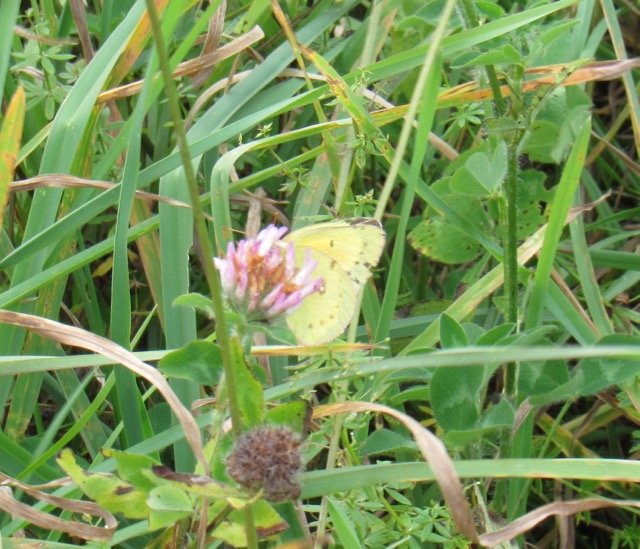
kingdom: Animalia
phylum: Arthropoda
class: Insecta
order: Lepidoptera
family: Pieridae
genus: Colias
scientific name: Colias eurytheme
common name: Orange Sulphur
